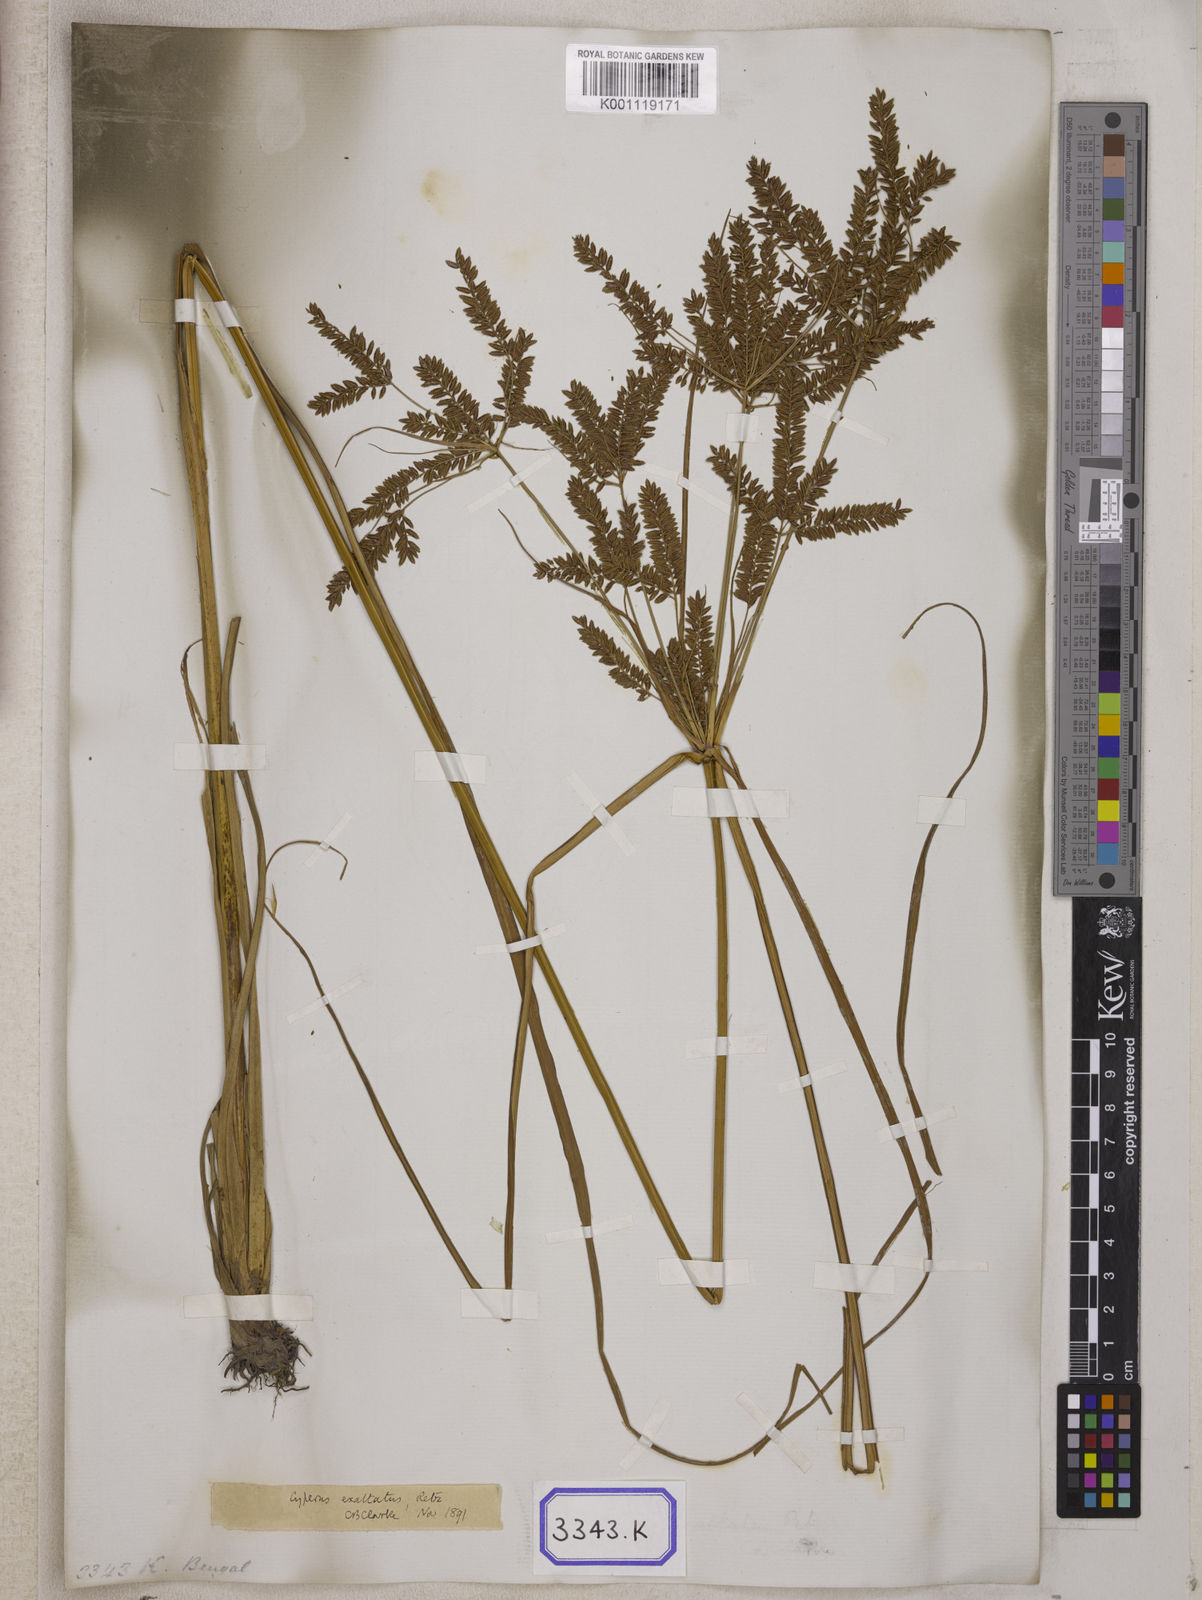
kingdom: Plantae
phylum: Tracheophyta
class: Liliopsida
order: Poales
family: Cyperaceae
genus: Cyperus
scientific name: Cyperus
